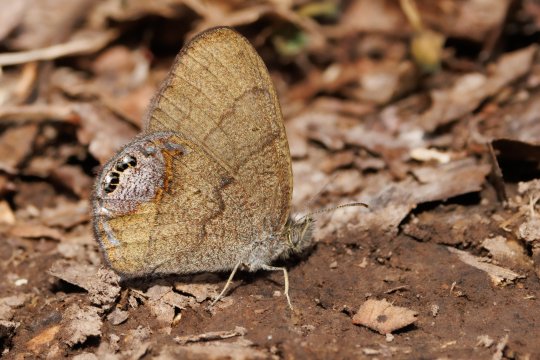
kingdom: Animalia
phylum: Arthropoda
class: Insecta
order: Lepidoptera
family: Nymphalidae
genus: Euptychia
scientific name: Euptychia cornelius
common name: Gemmed Satyr
